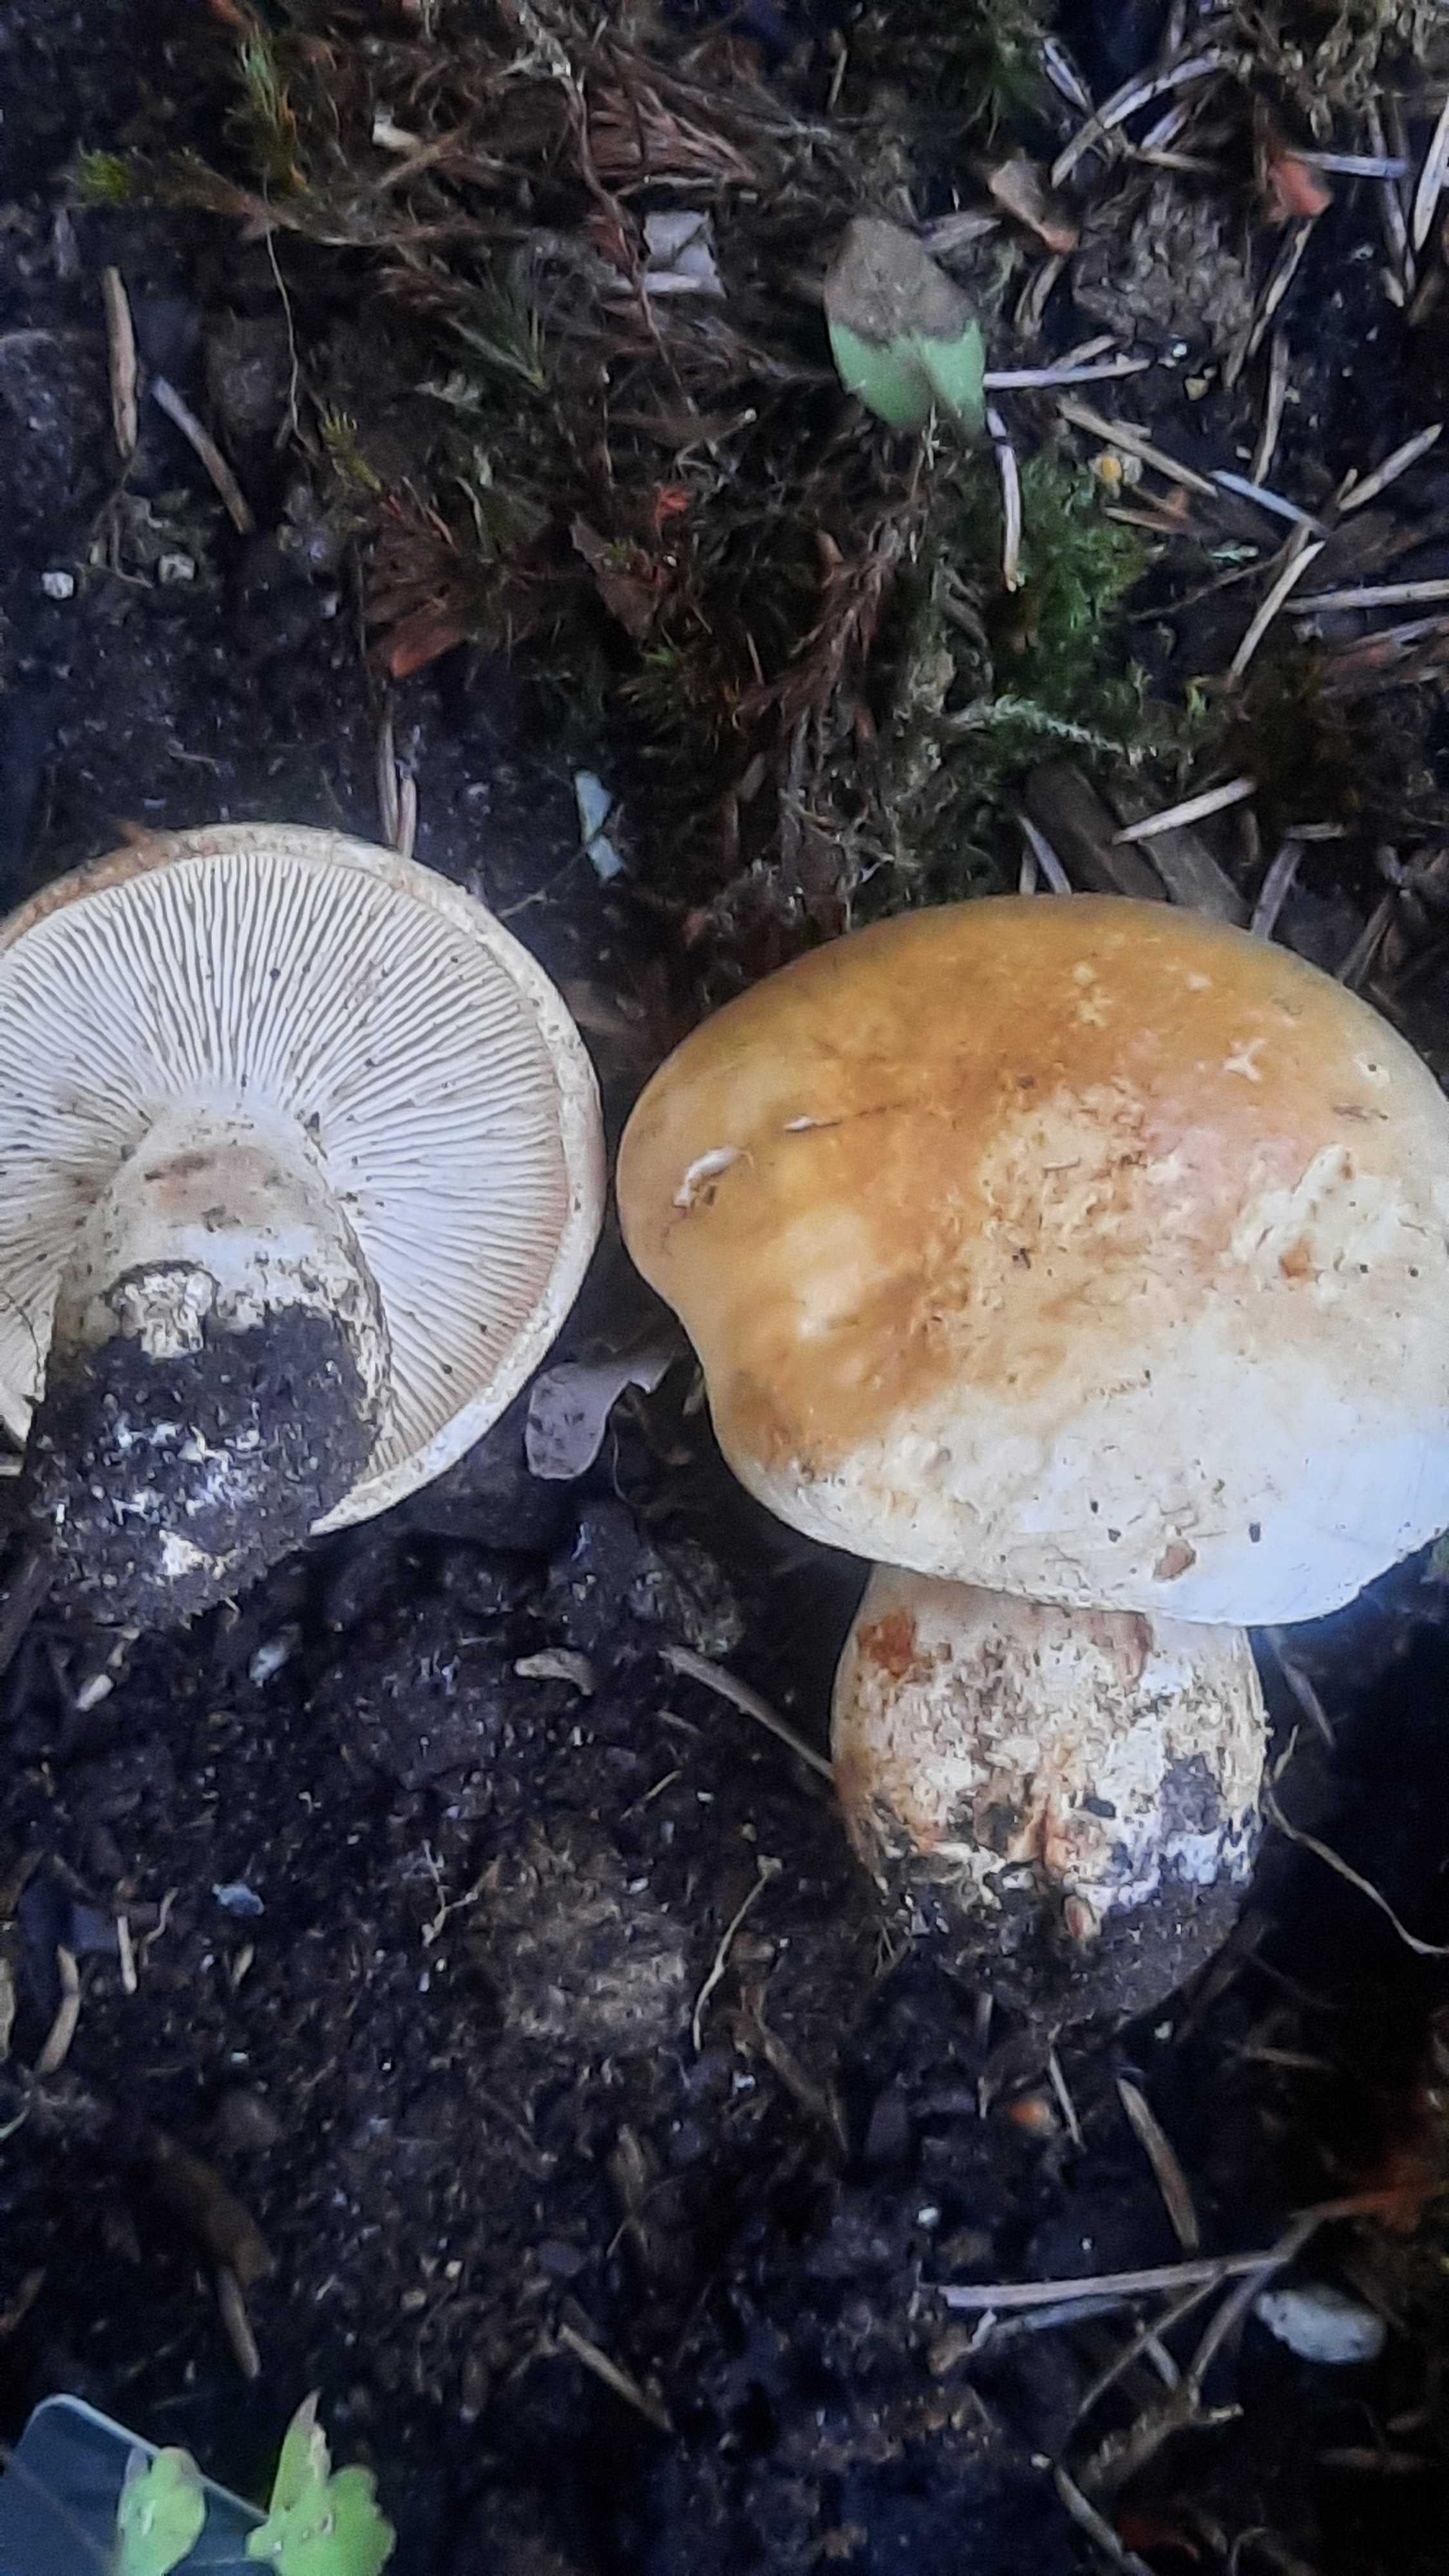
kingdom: Fungi
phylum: Basidiomycota
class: Agaricomycetes
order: Agaricales
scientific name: Agaricales
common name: champignonordenen
